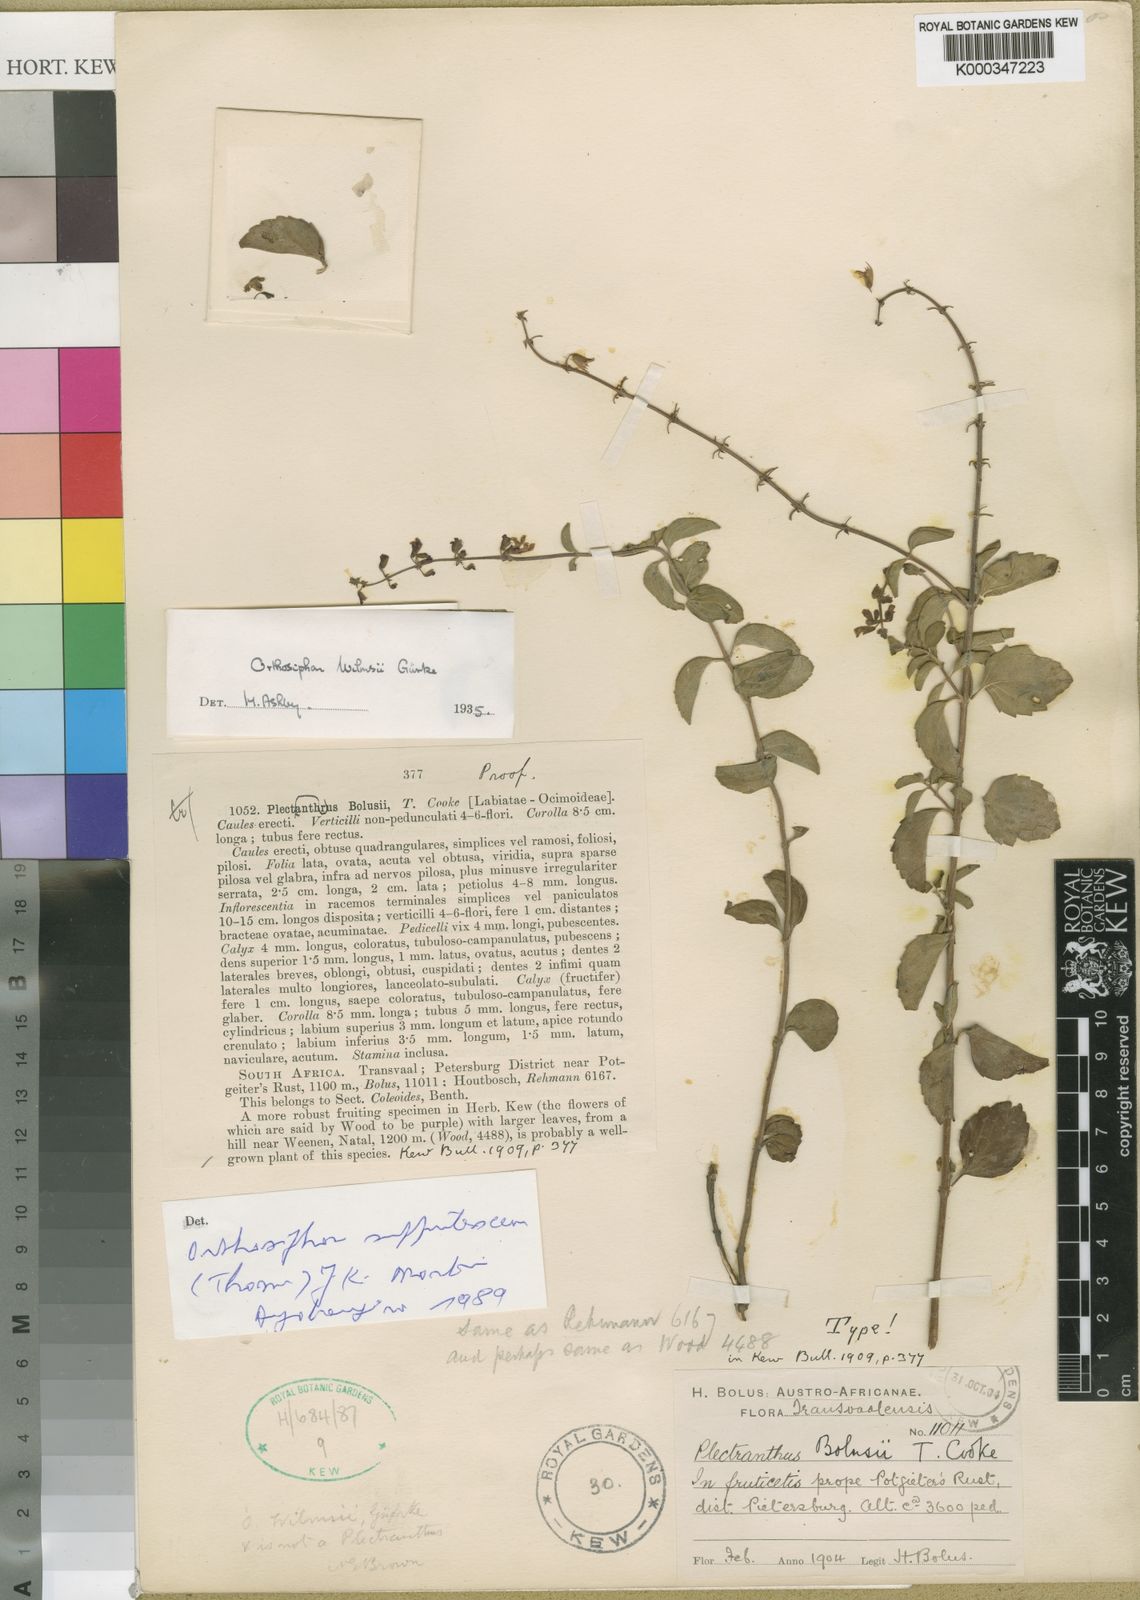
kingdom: Plantae
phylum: Tracheophyta
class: Magnoliopsida
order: Lamiales
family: Lamiaceae
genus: Orthosiphon
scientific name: Orthosiphon thymiflorus
